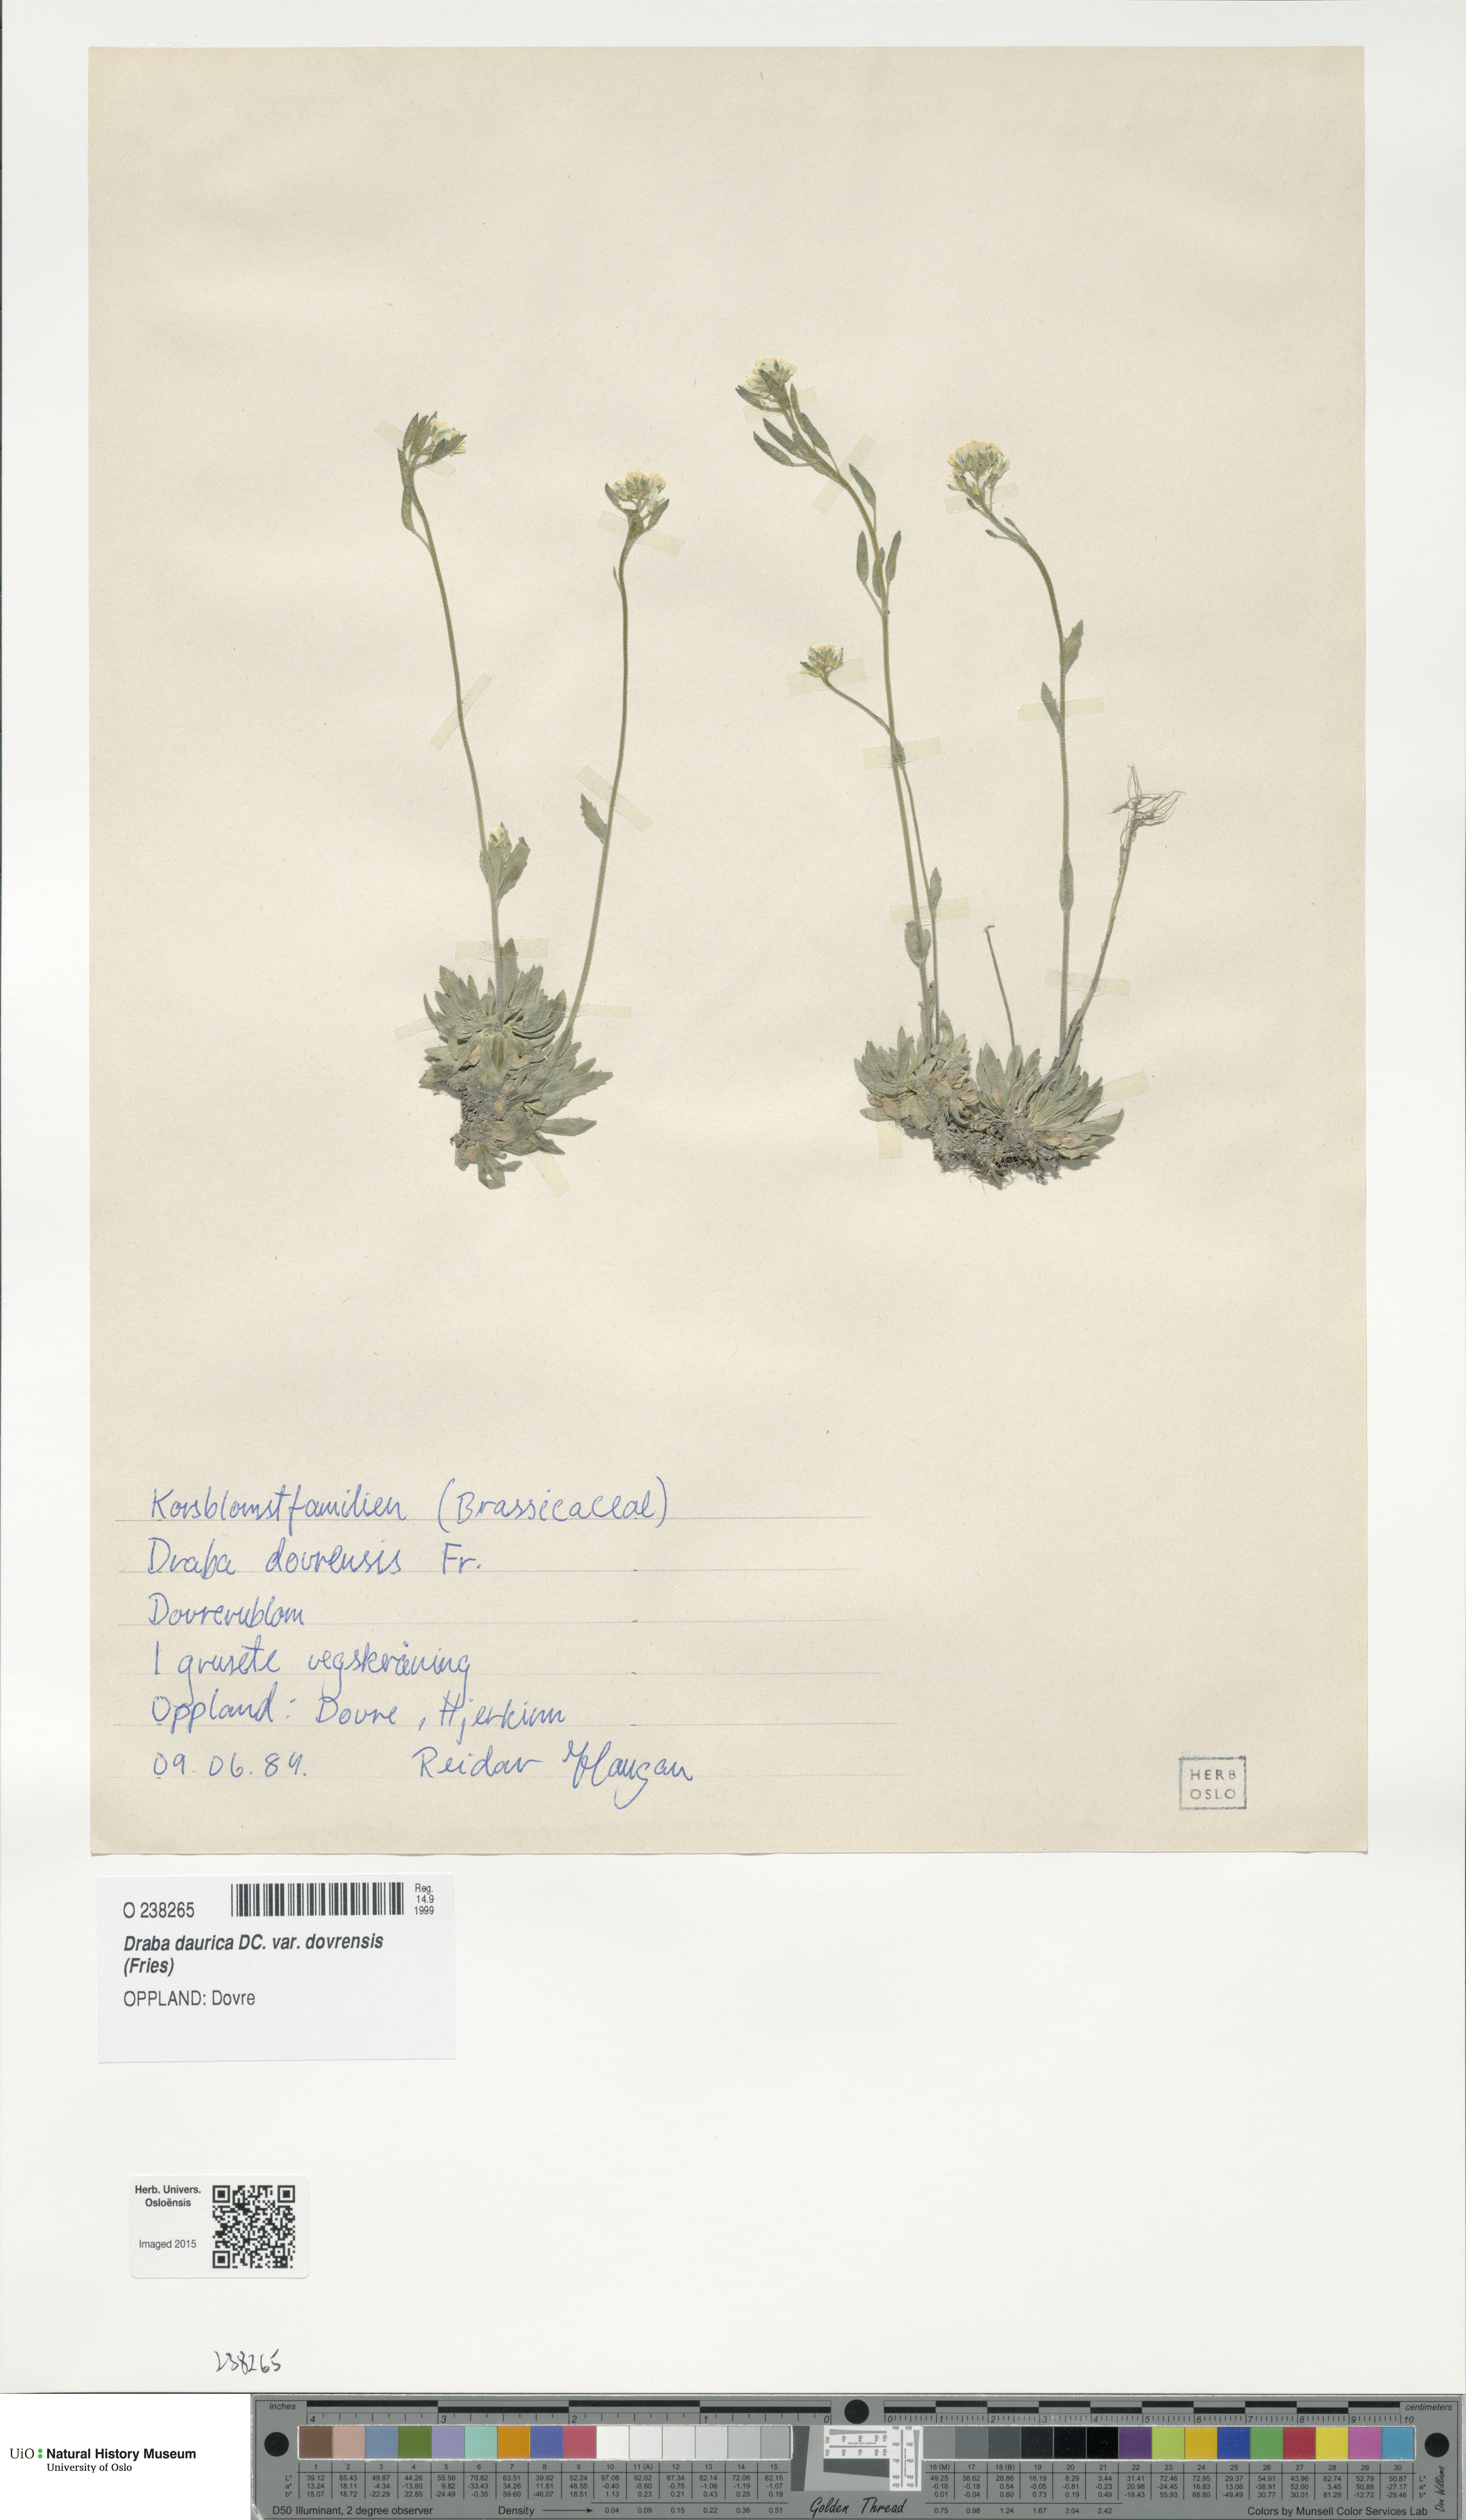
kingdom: Plantae
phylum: Tracheophyta
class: Magnoliopsida
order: Brassicales
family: Brassicaceae
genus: Draba
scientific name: Draba glabella
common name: Glaucous draba
